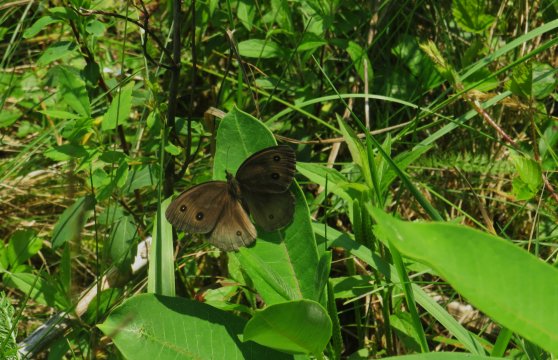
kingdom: Animalia
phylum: Arthropoda
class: Insecta
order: Lepidoptera
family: Nymphalidae
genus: Cercyonis
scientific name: Cercyonis pegala
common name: Common Wood-Nymph
